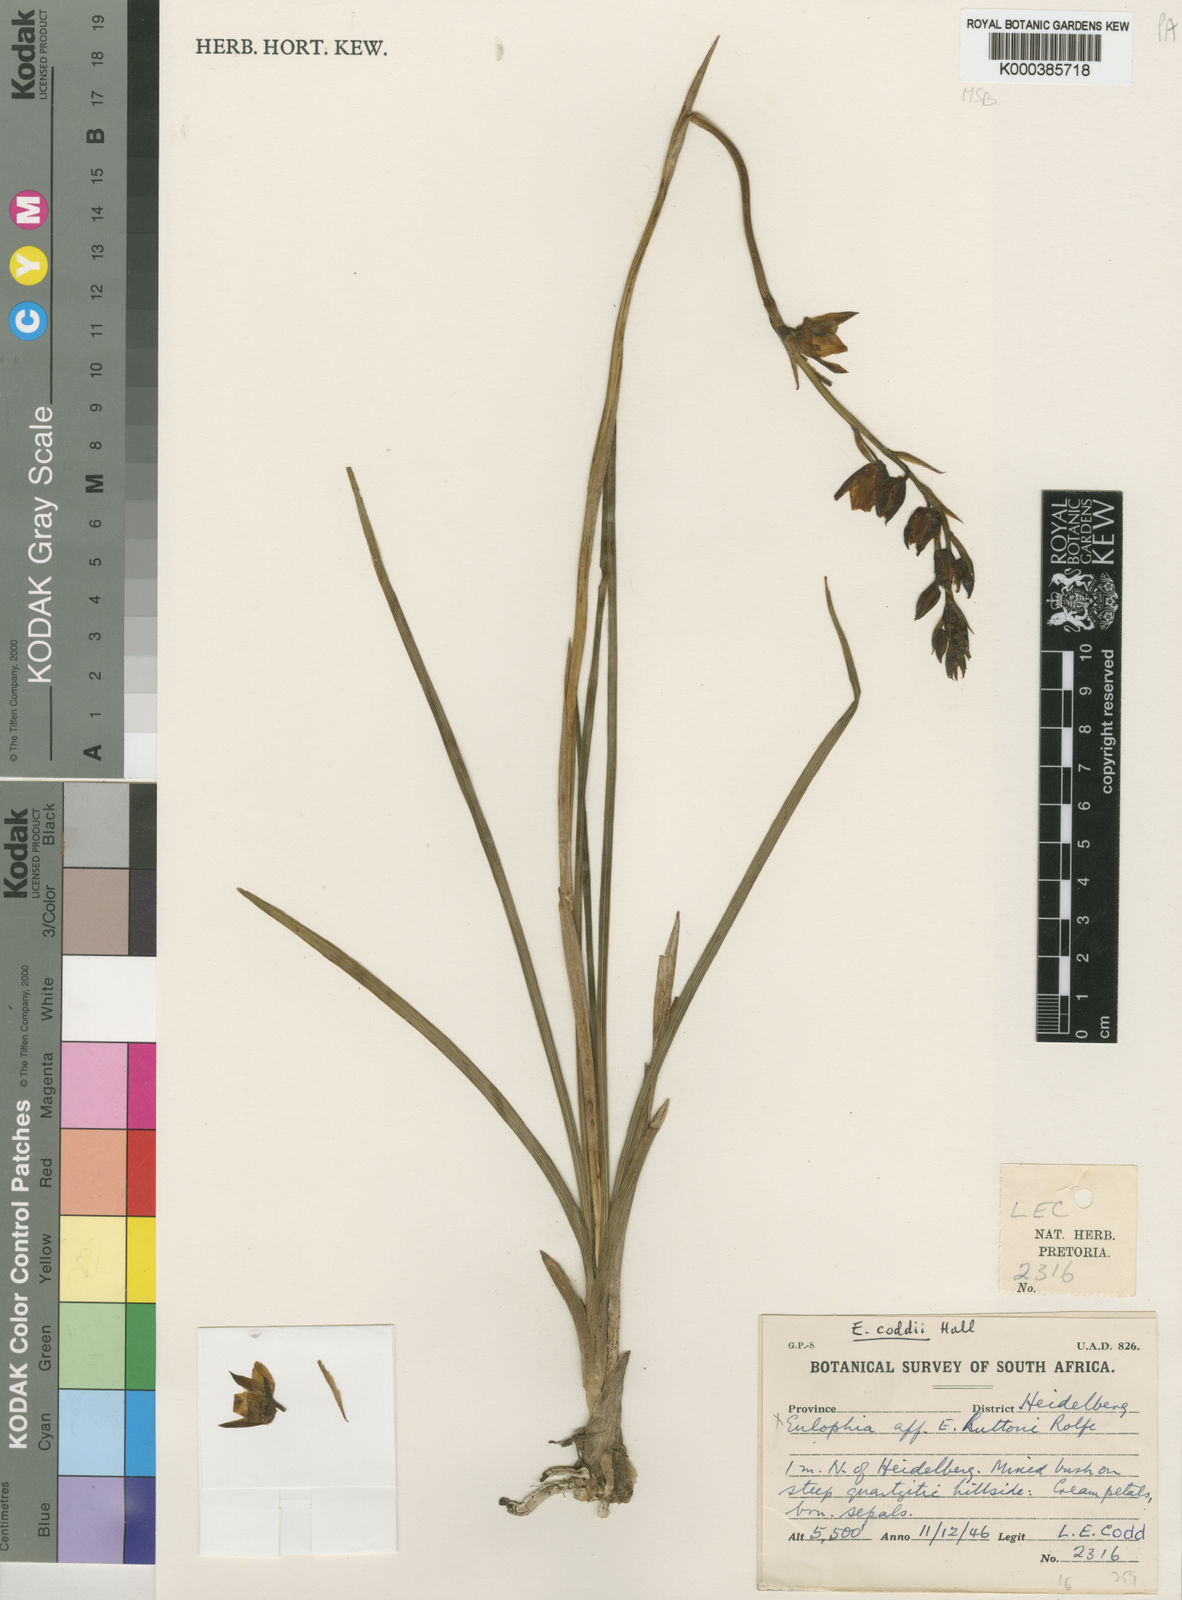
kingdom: Plantae
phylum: Tracheophyta
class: Liliopsida
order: Asparagales
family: Orchidaceae
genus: Eulophia
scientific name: Eulophia coddii
